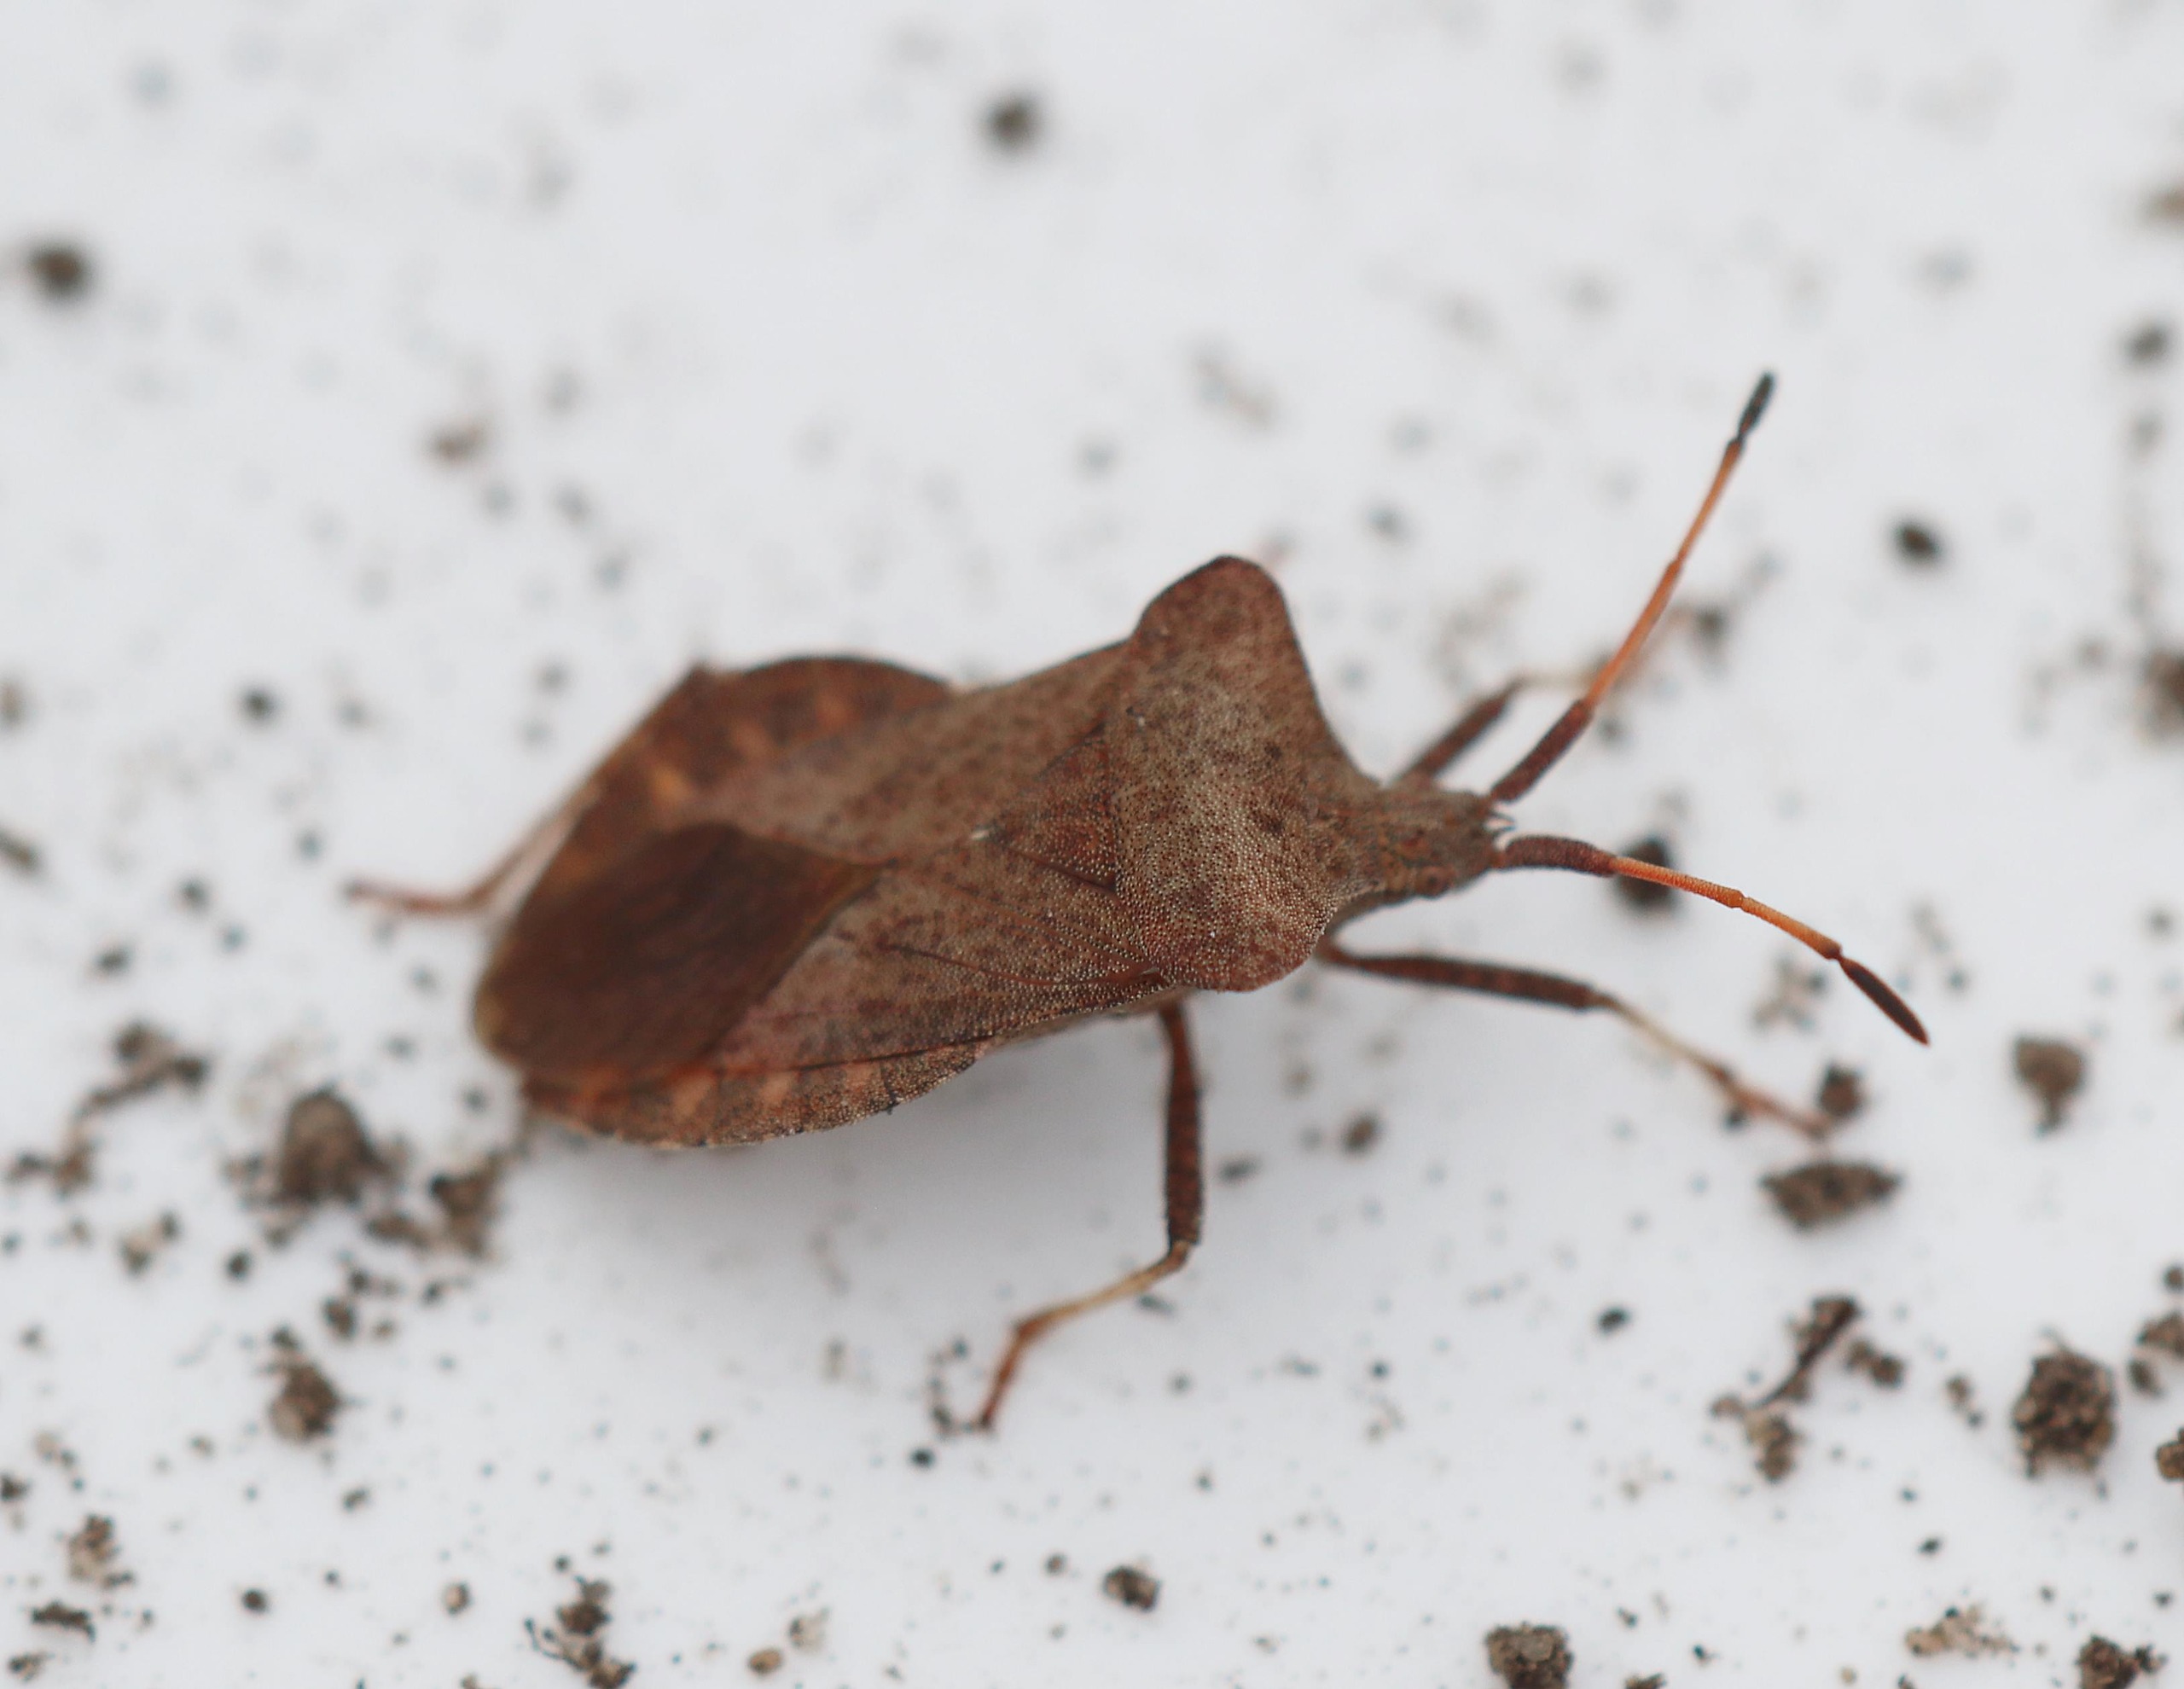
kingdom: Animalia
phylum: Arthropoda
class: Insecta
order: Hemiptera
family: Coreidae
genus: Coreus
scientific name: Coreus marginatus
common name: Skræppetæge
